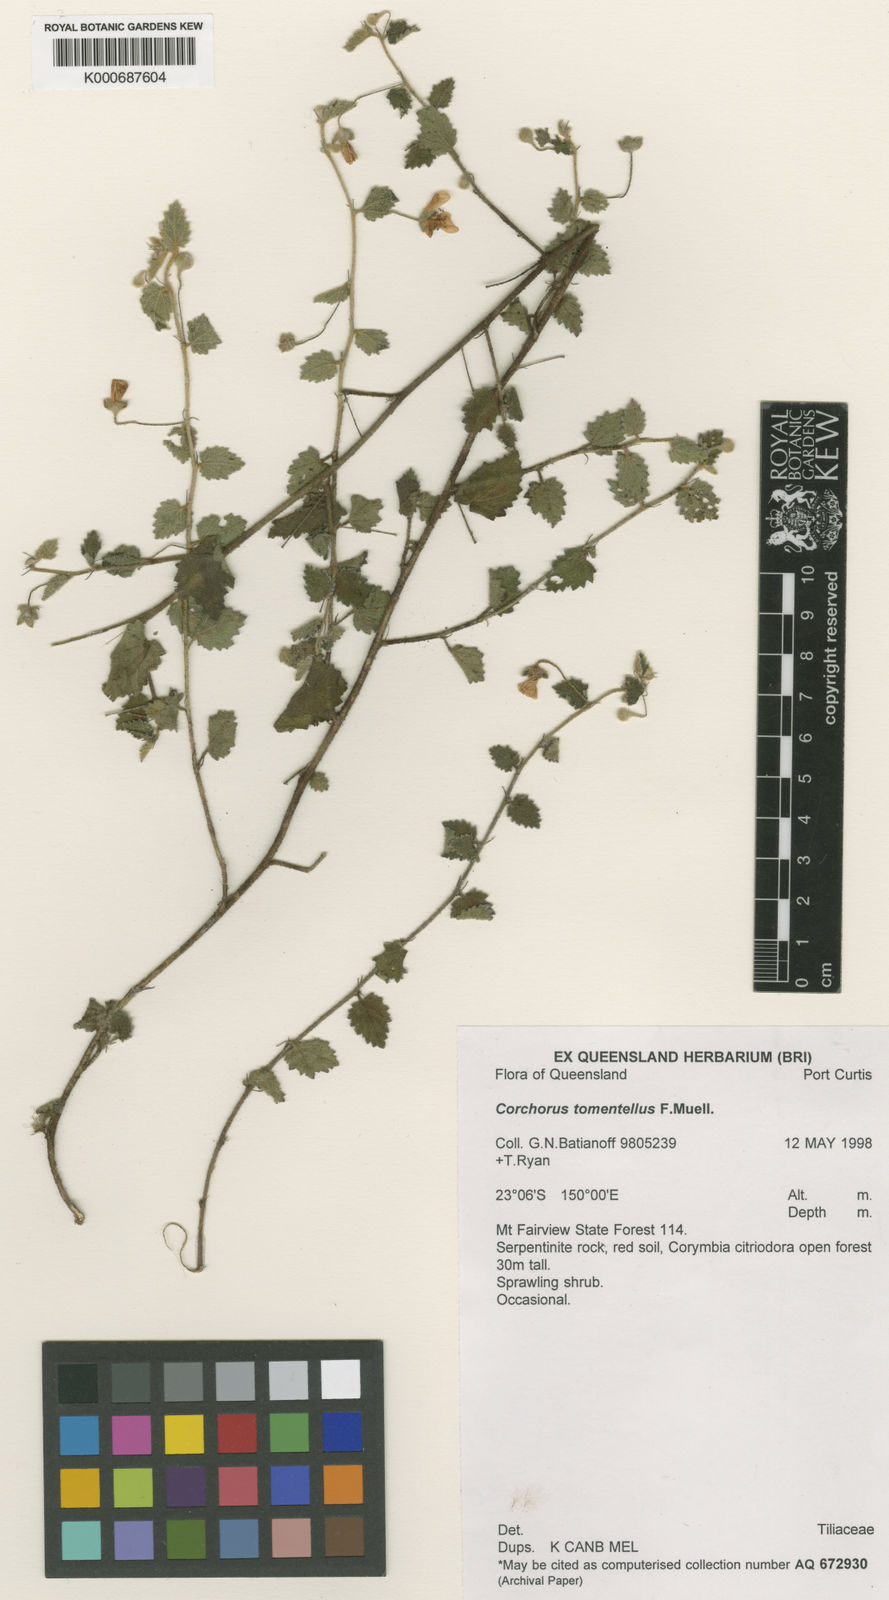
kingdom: Plantae
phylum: Tracheophyta
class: Magnoliopsida
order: Malvales
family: Malvaceae
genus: Corchorus
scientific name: Corchorus
